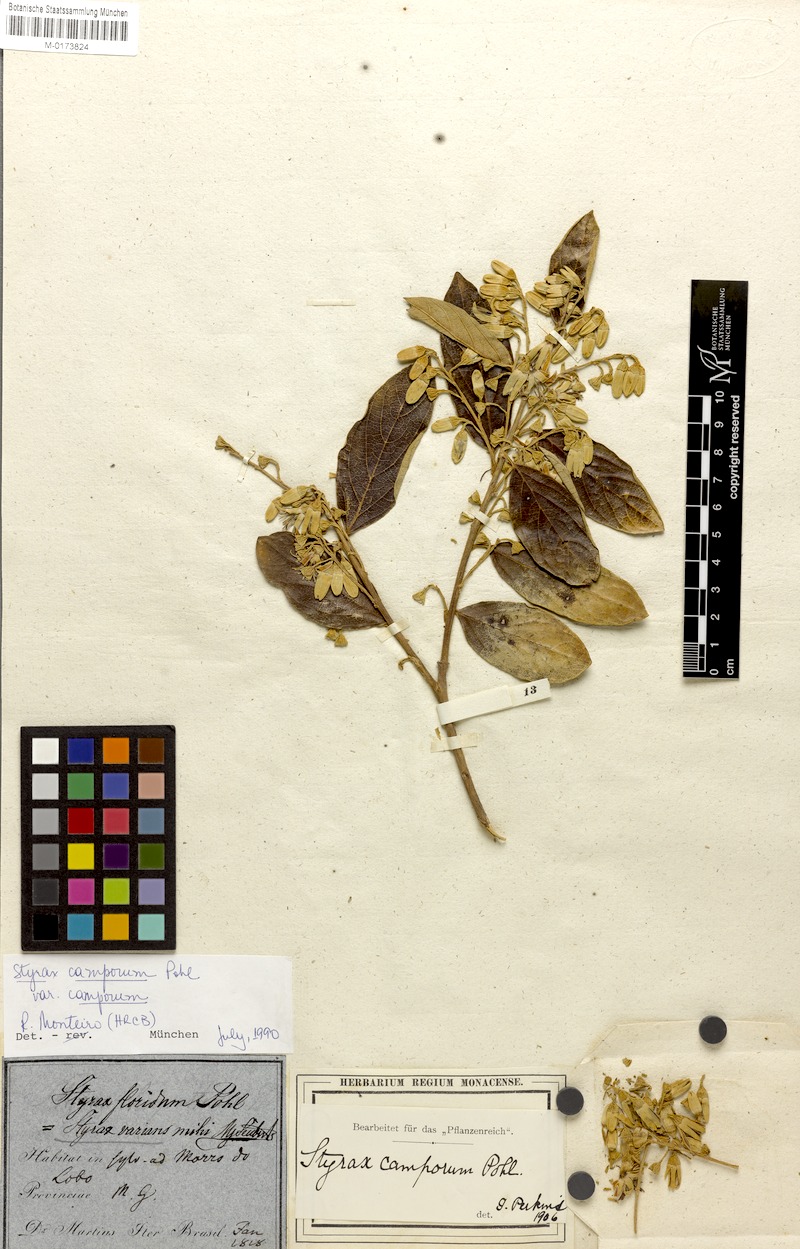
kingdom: Plantae
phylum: Tracheophyta
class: Magnoliopsida
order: Ericales
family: Styracaceae
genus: Styrax
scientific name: Styrax camporum
